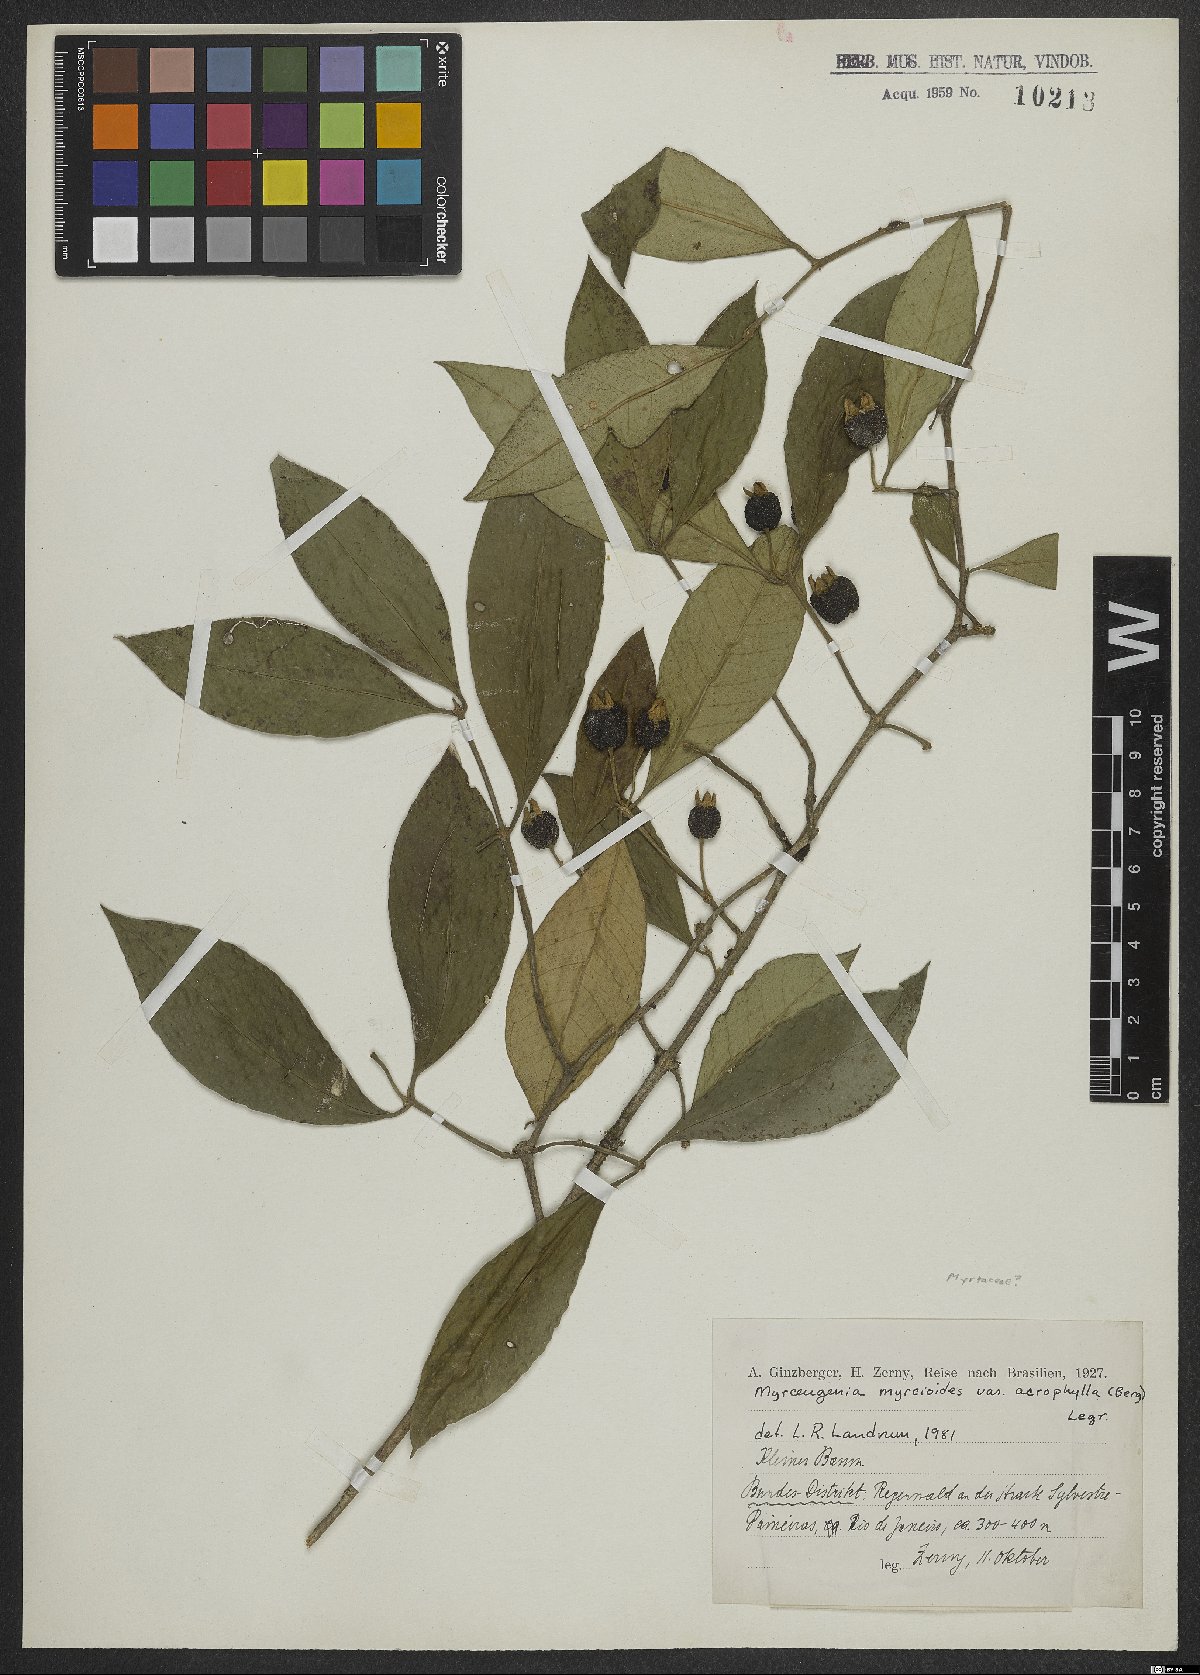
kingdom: Plantae
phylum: Tracheophyta
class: Magnoliopsida
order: Myrtales
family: Myrtaceae
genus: Myrceugenia
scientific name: Myrceugenia myrcioides
